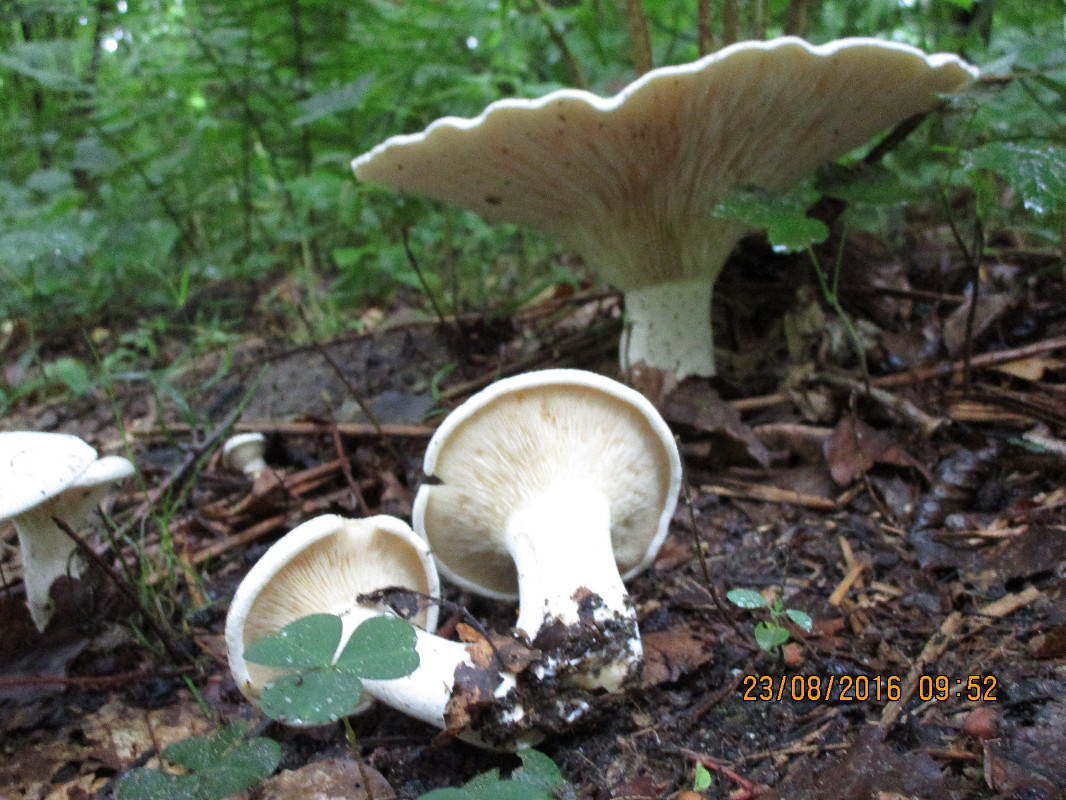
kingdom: Fungi
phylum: Basidiomycota
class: Agaricomycetes
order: Agaricales
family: Tricholomataceae
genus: Aspropaxillus
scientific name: Aspropaxillus giganteus
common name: kæmpe-tragtridderhat
